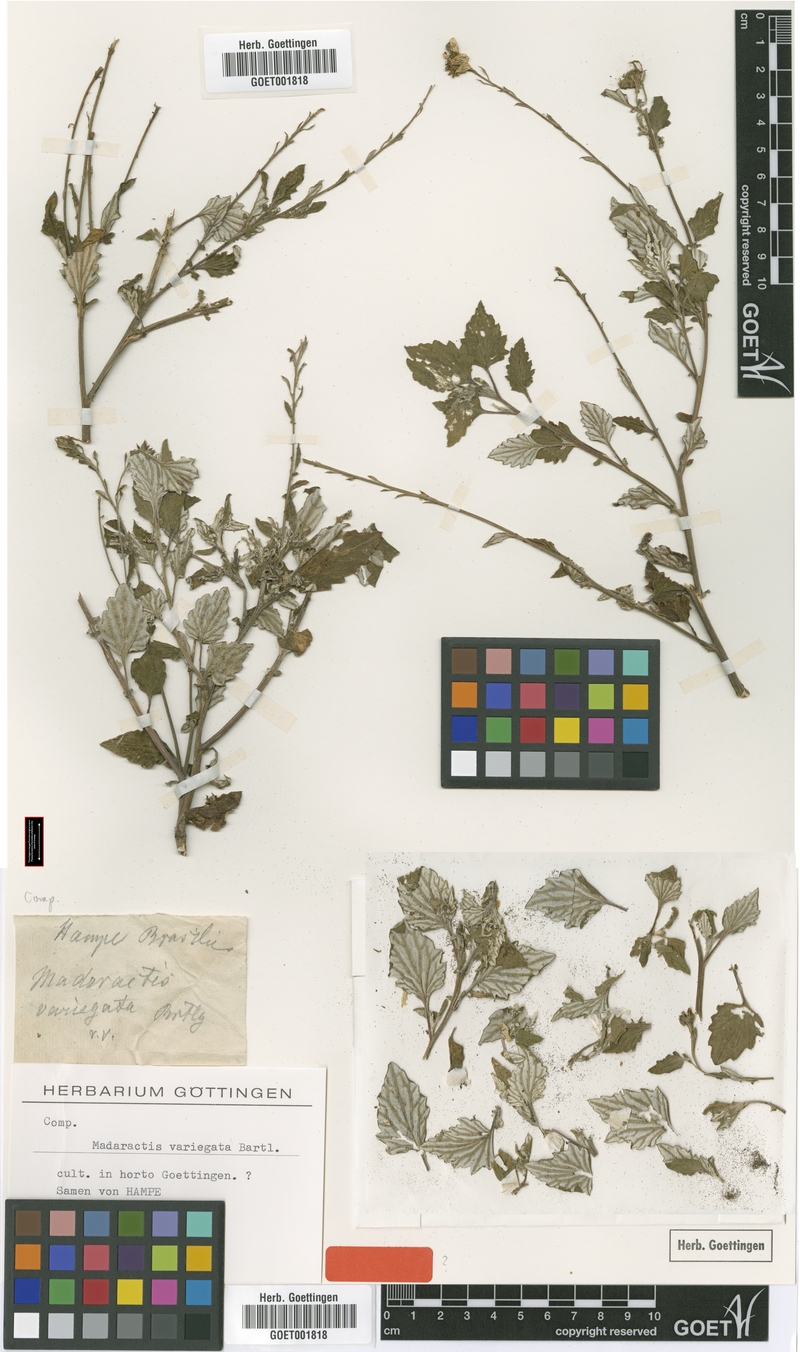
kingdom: Plantae
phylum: Tracheophyta
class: Magnoliopsida
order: Asterales
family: Asteraceae
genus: Senecio
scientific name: Senecio Madaractis variegata
